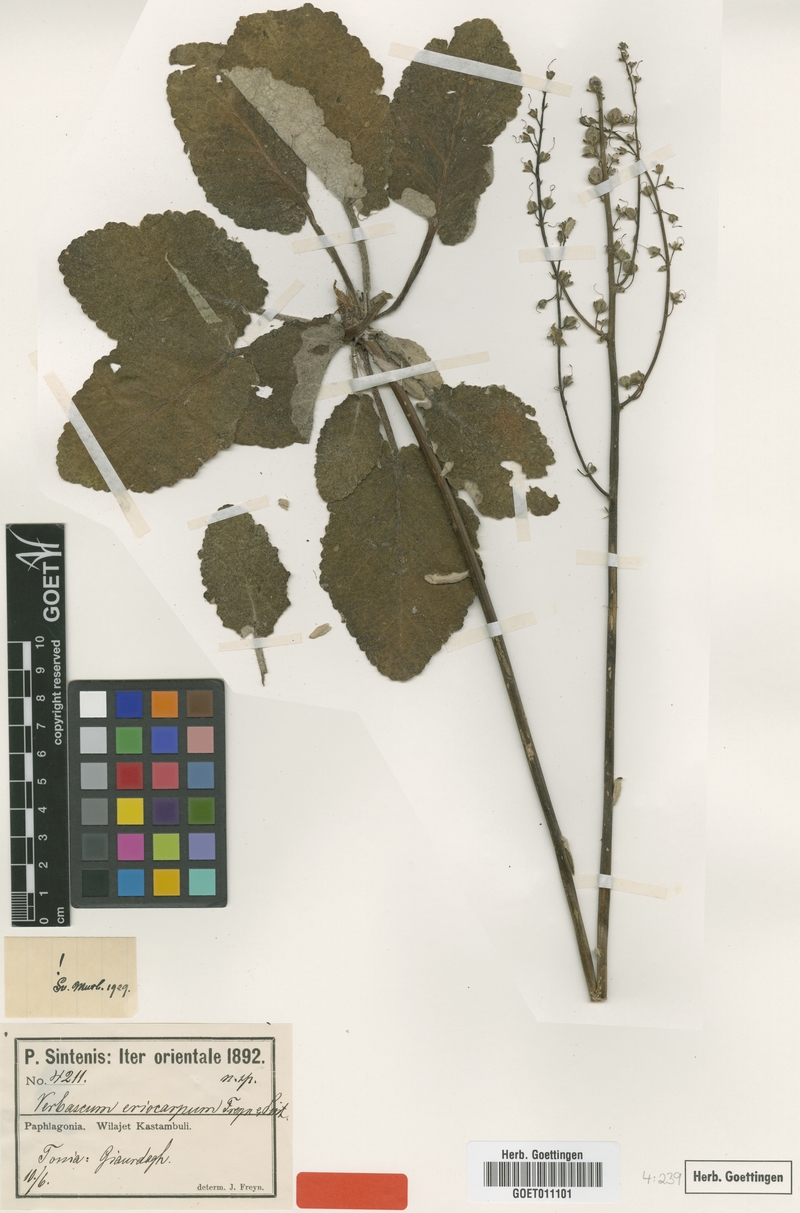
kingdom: Plantae
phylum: Tracheophyta
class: Magnoliopsida
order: Lamiales
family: Scrophulariaceae
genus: Verbascum
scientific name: Verbascum eriocarpum
